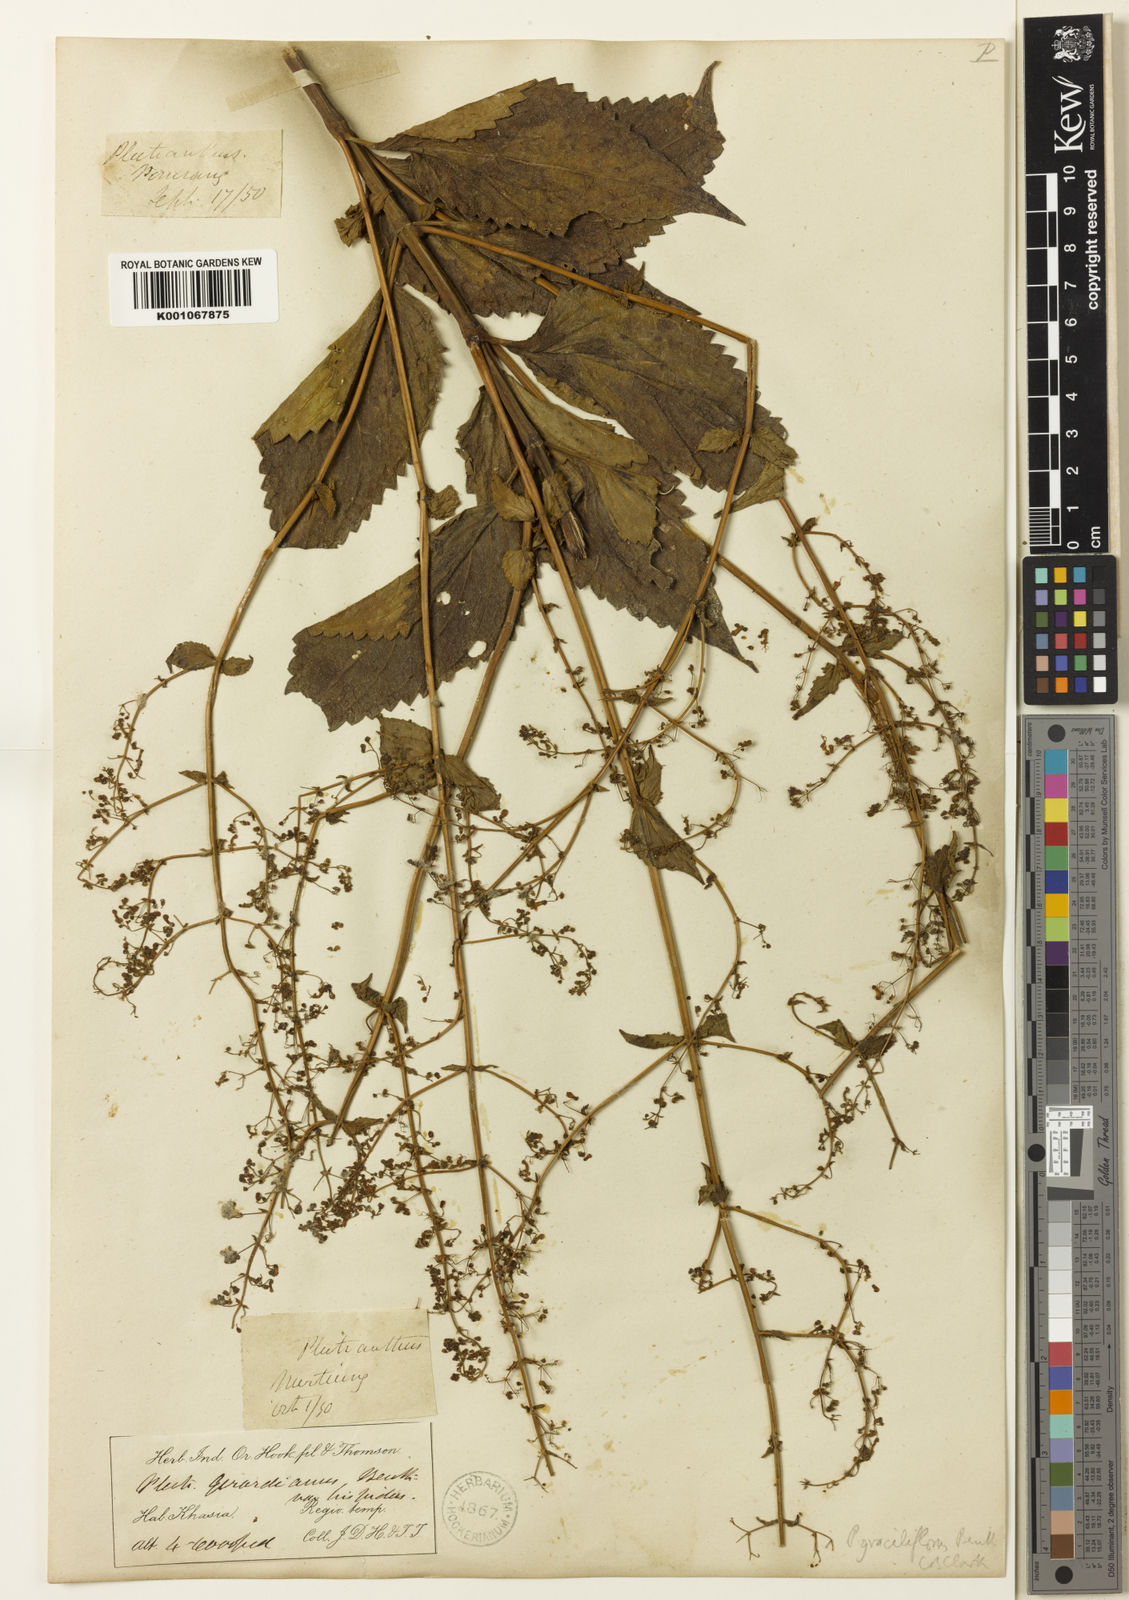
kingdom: Plantae
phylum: Tracheophyta
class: Magnoliopsida
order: Lamiales
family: Lamiaceae
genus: Isodon
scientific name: Isodon lophanthoides
